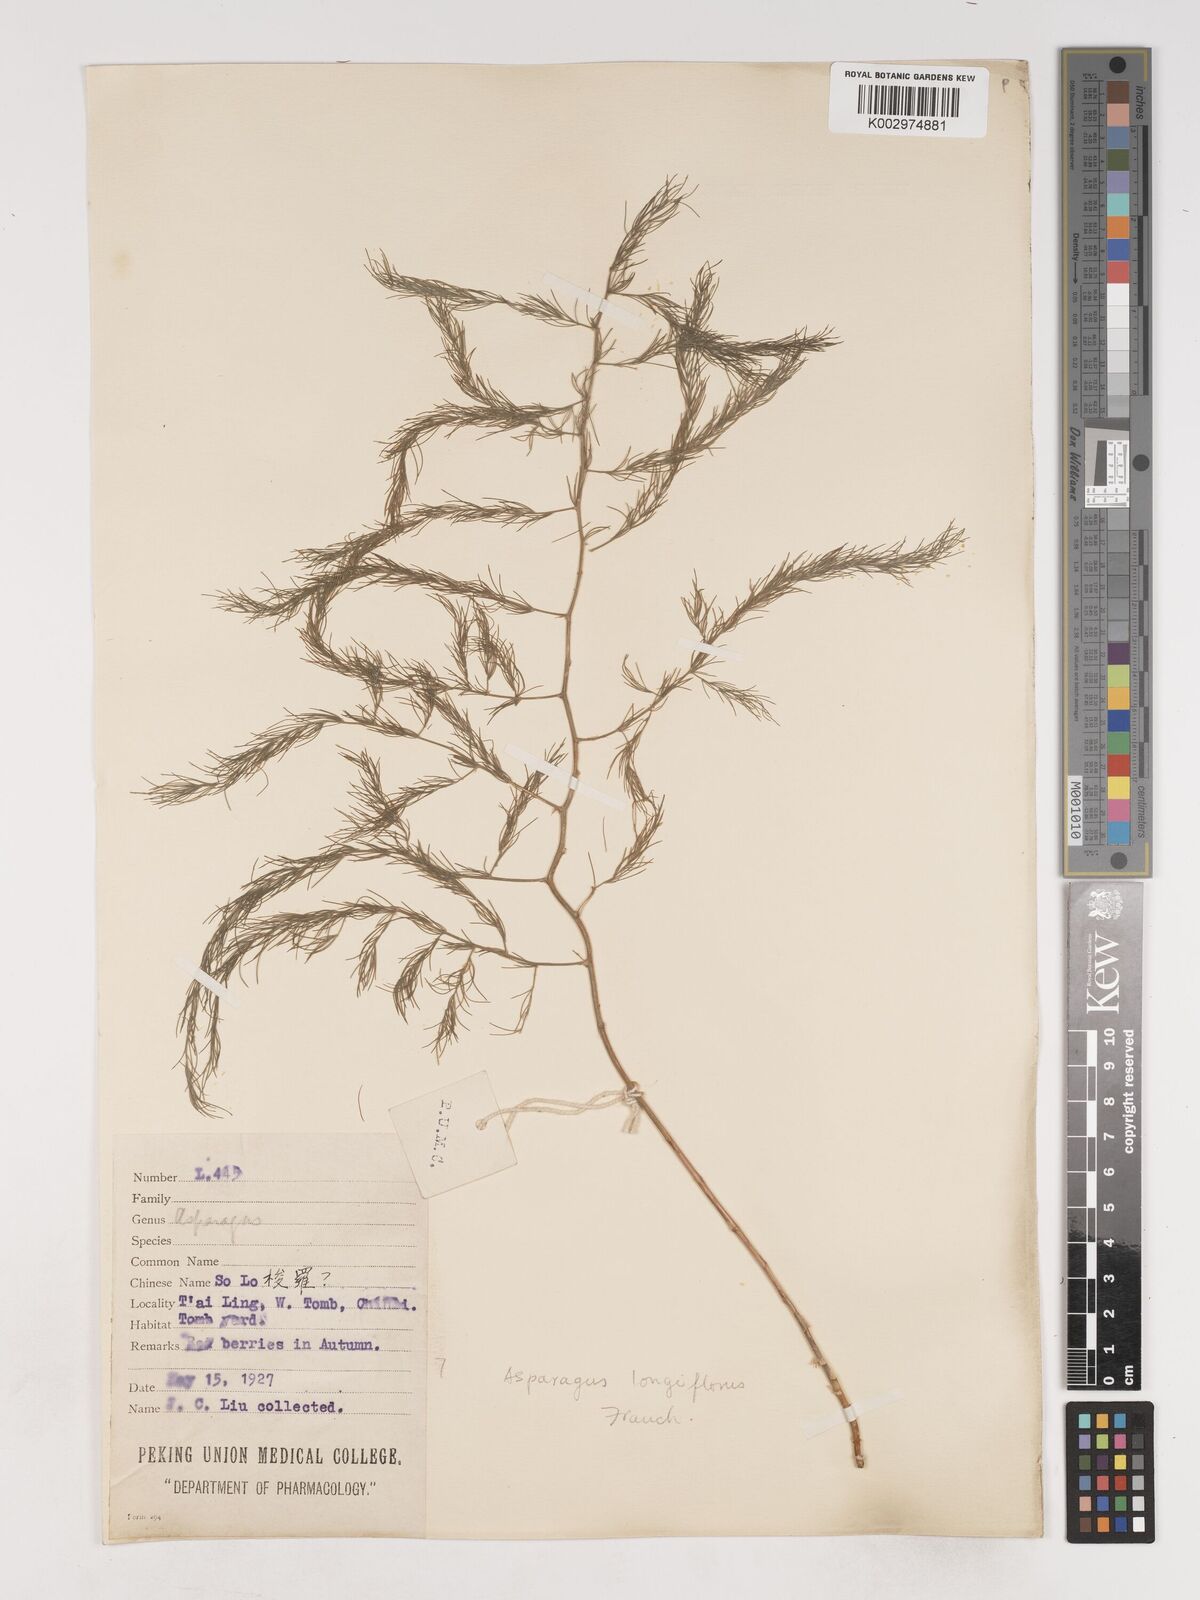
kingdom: Plantae
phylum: Tracheophyta
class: Liliopsida
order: Asparagales
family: Asparagaceae
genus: Asparagus
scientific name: Asparagus longiflorus
